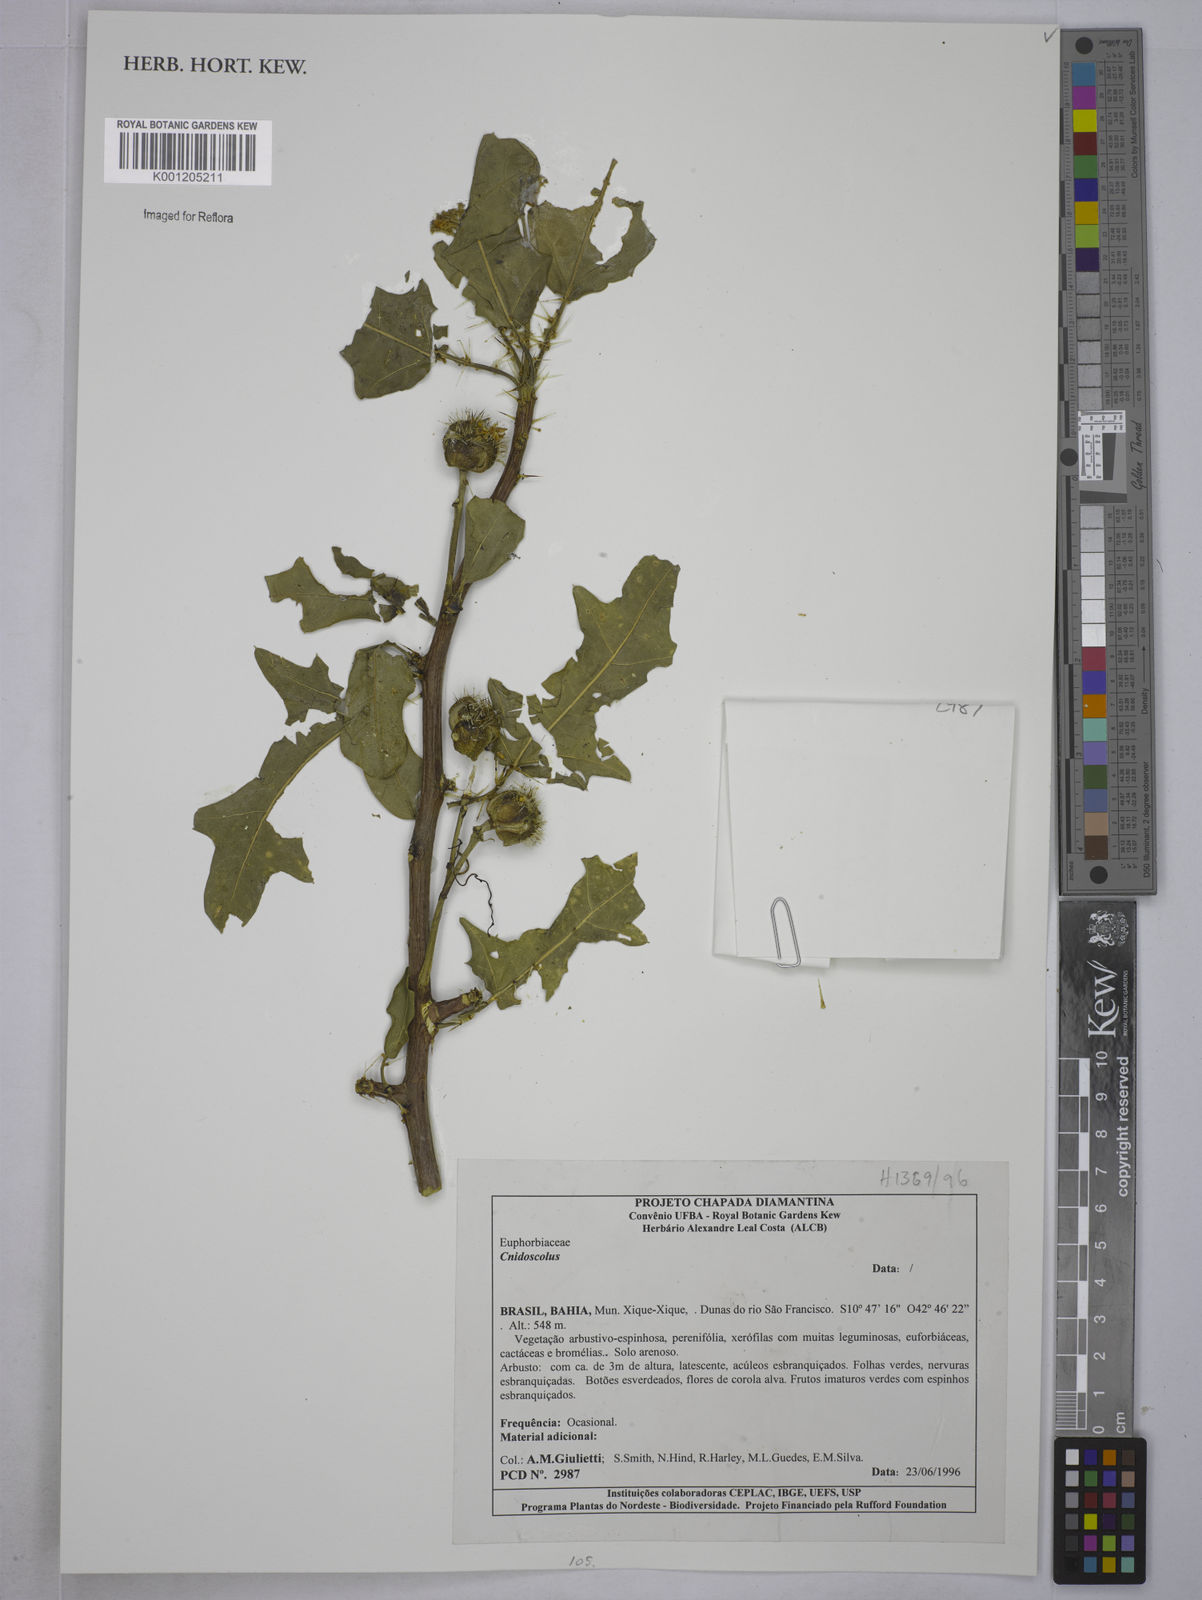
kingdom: Plantae
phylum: Tracheophyta
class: Magnoliopsida
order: Malpighiales
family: Euphorbiaceae
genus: Cnidoscolus
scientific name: Cnidoscolus
